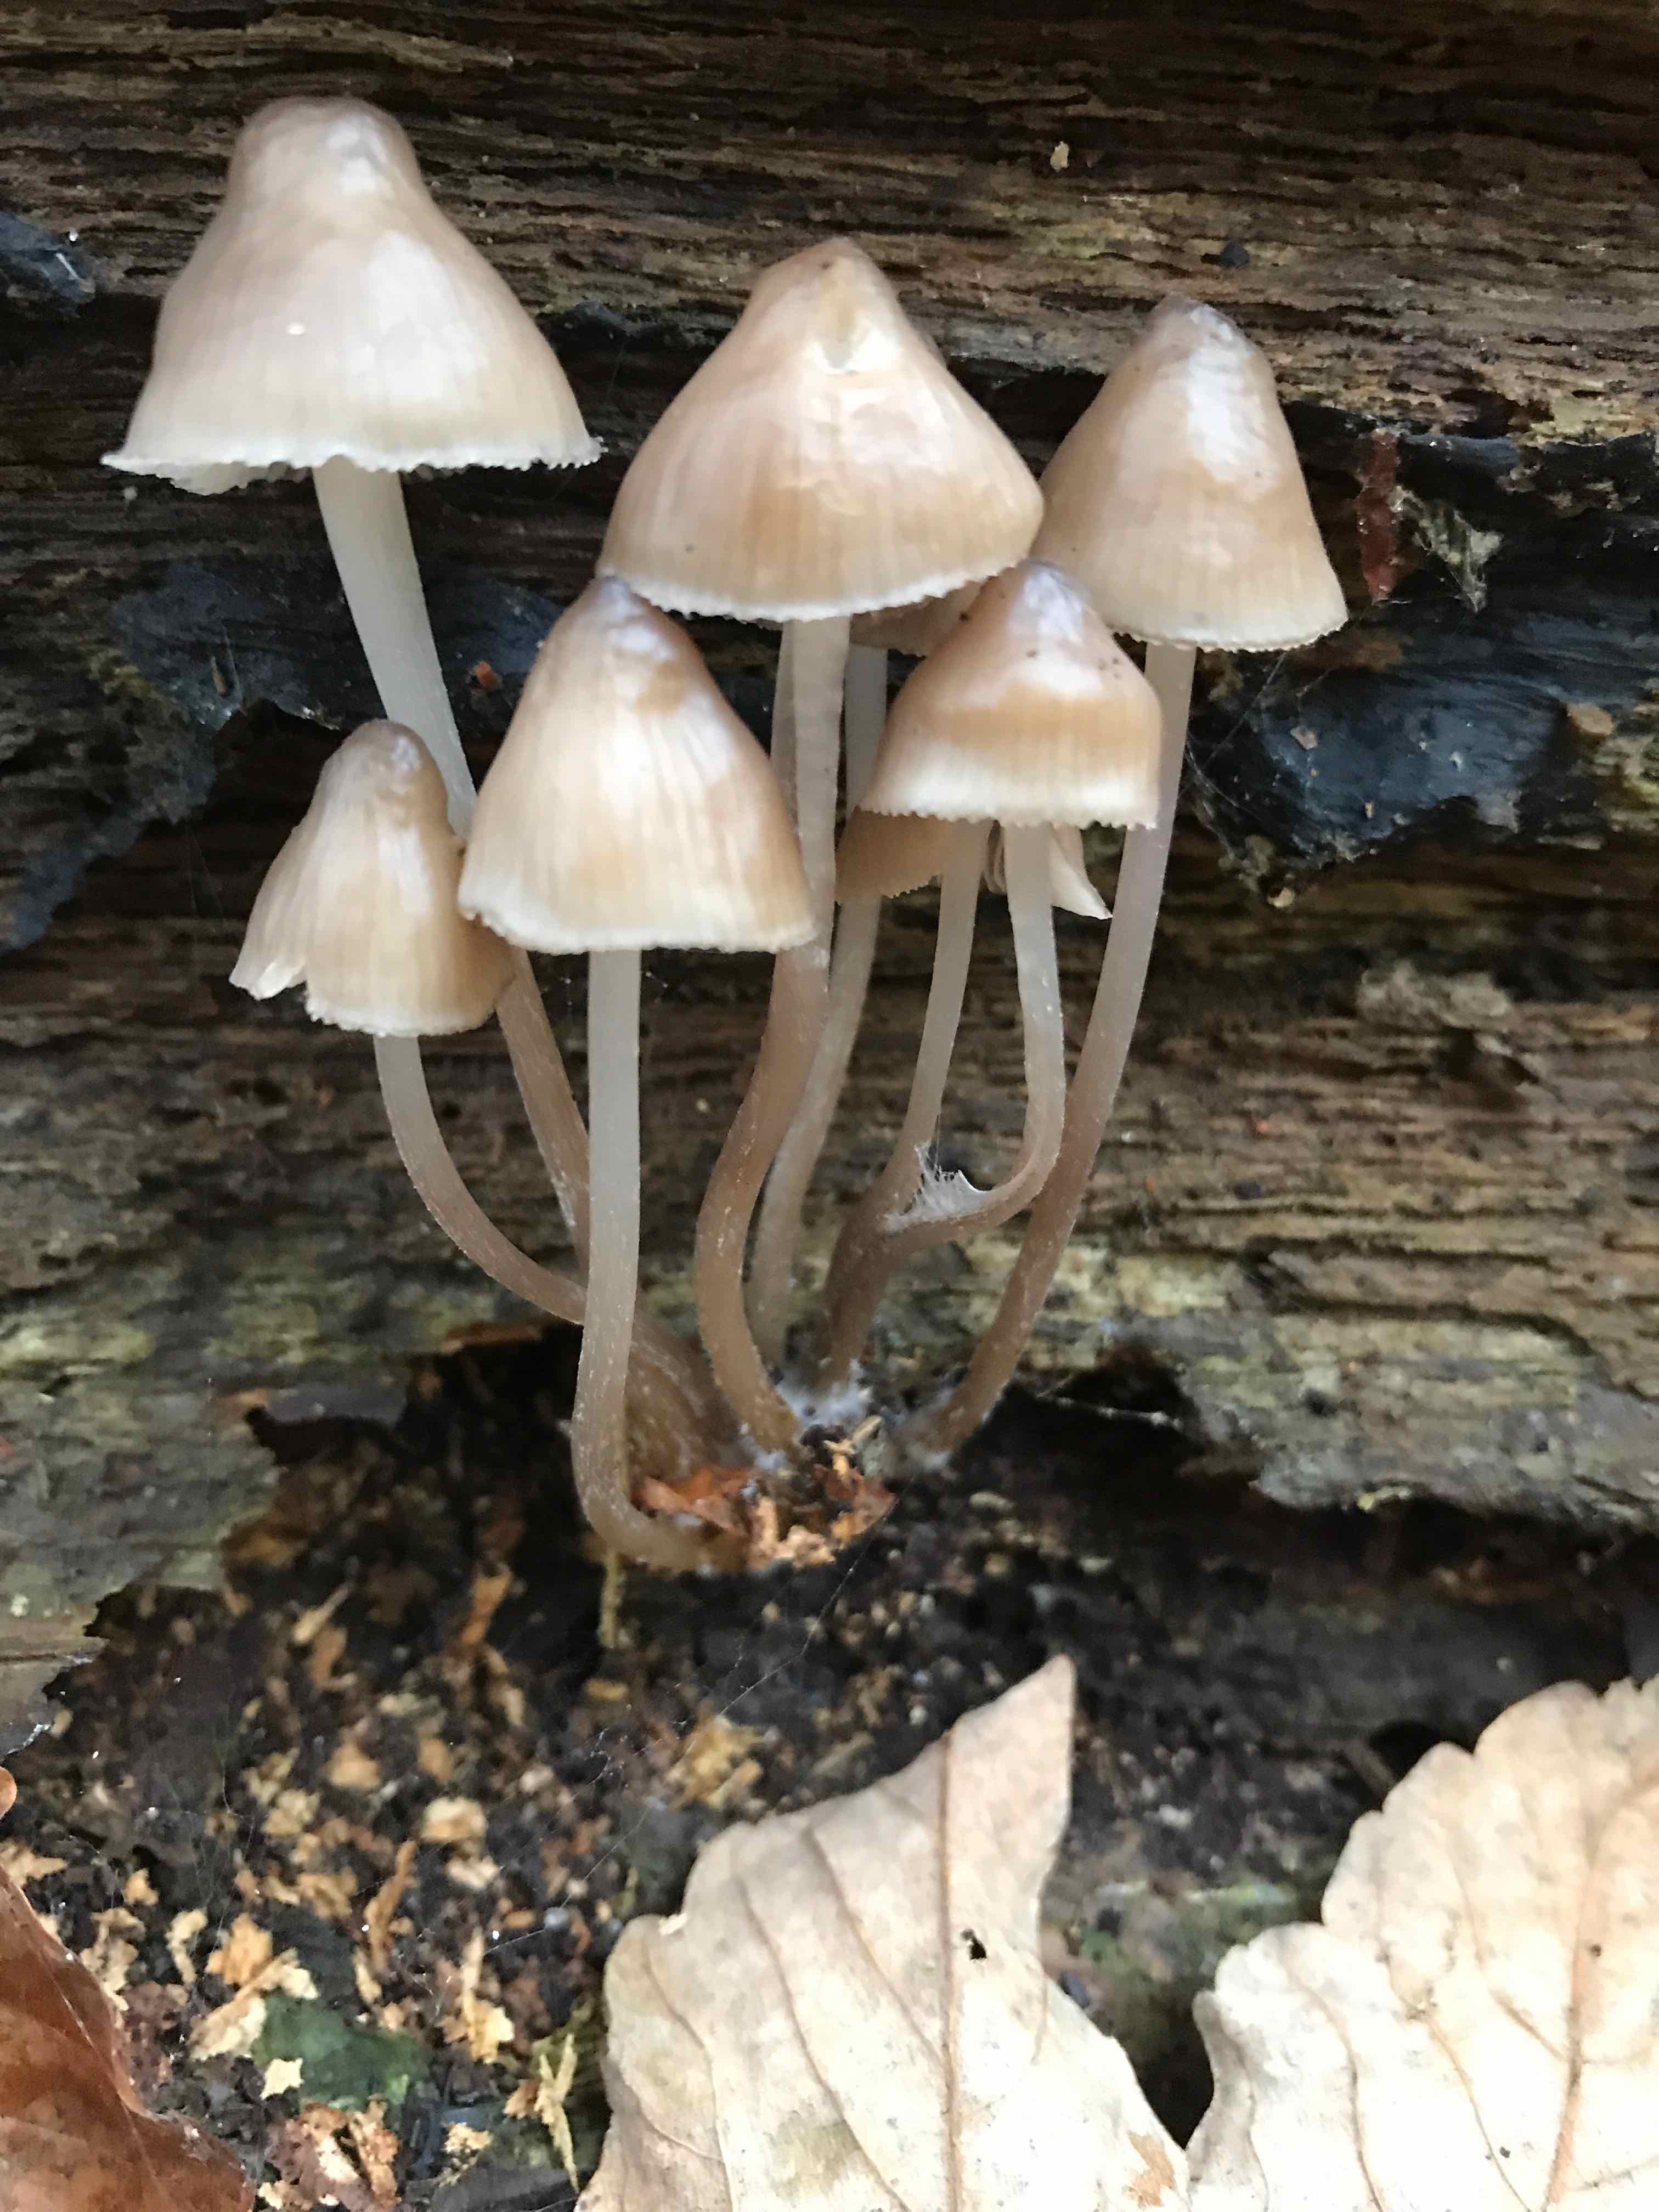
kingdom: Fungi
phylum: Basidiomycota
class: Agaricomycetes
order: Agaricales
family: Mycenaceae
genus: Mycena
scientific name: Mycena inclinata
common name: nikkende huesvamp
